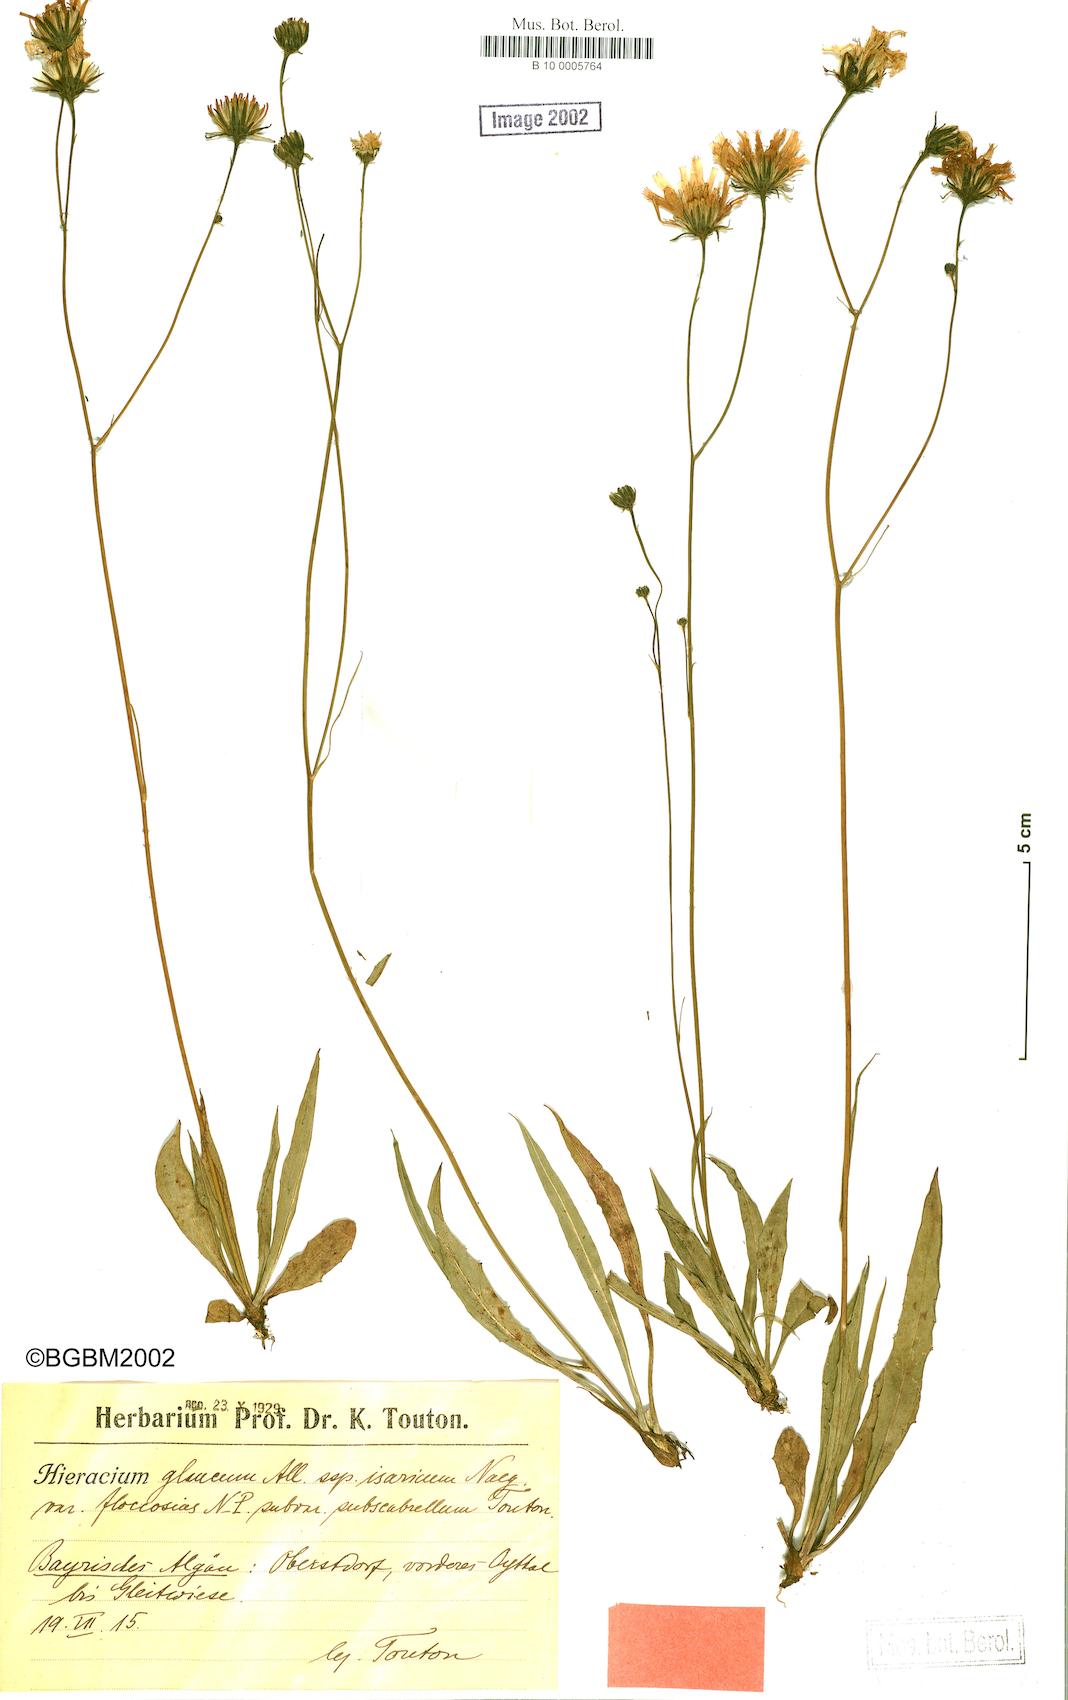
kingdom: Plantae
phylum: Tracheophyta
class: Magnoliopsida
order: Asterales
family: Asteraceae
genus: Hieracium
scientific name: Hieracium glaucum
